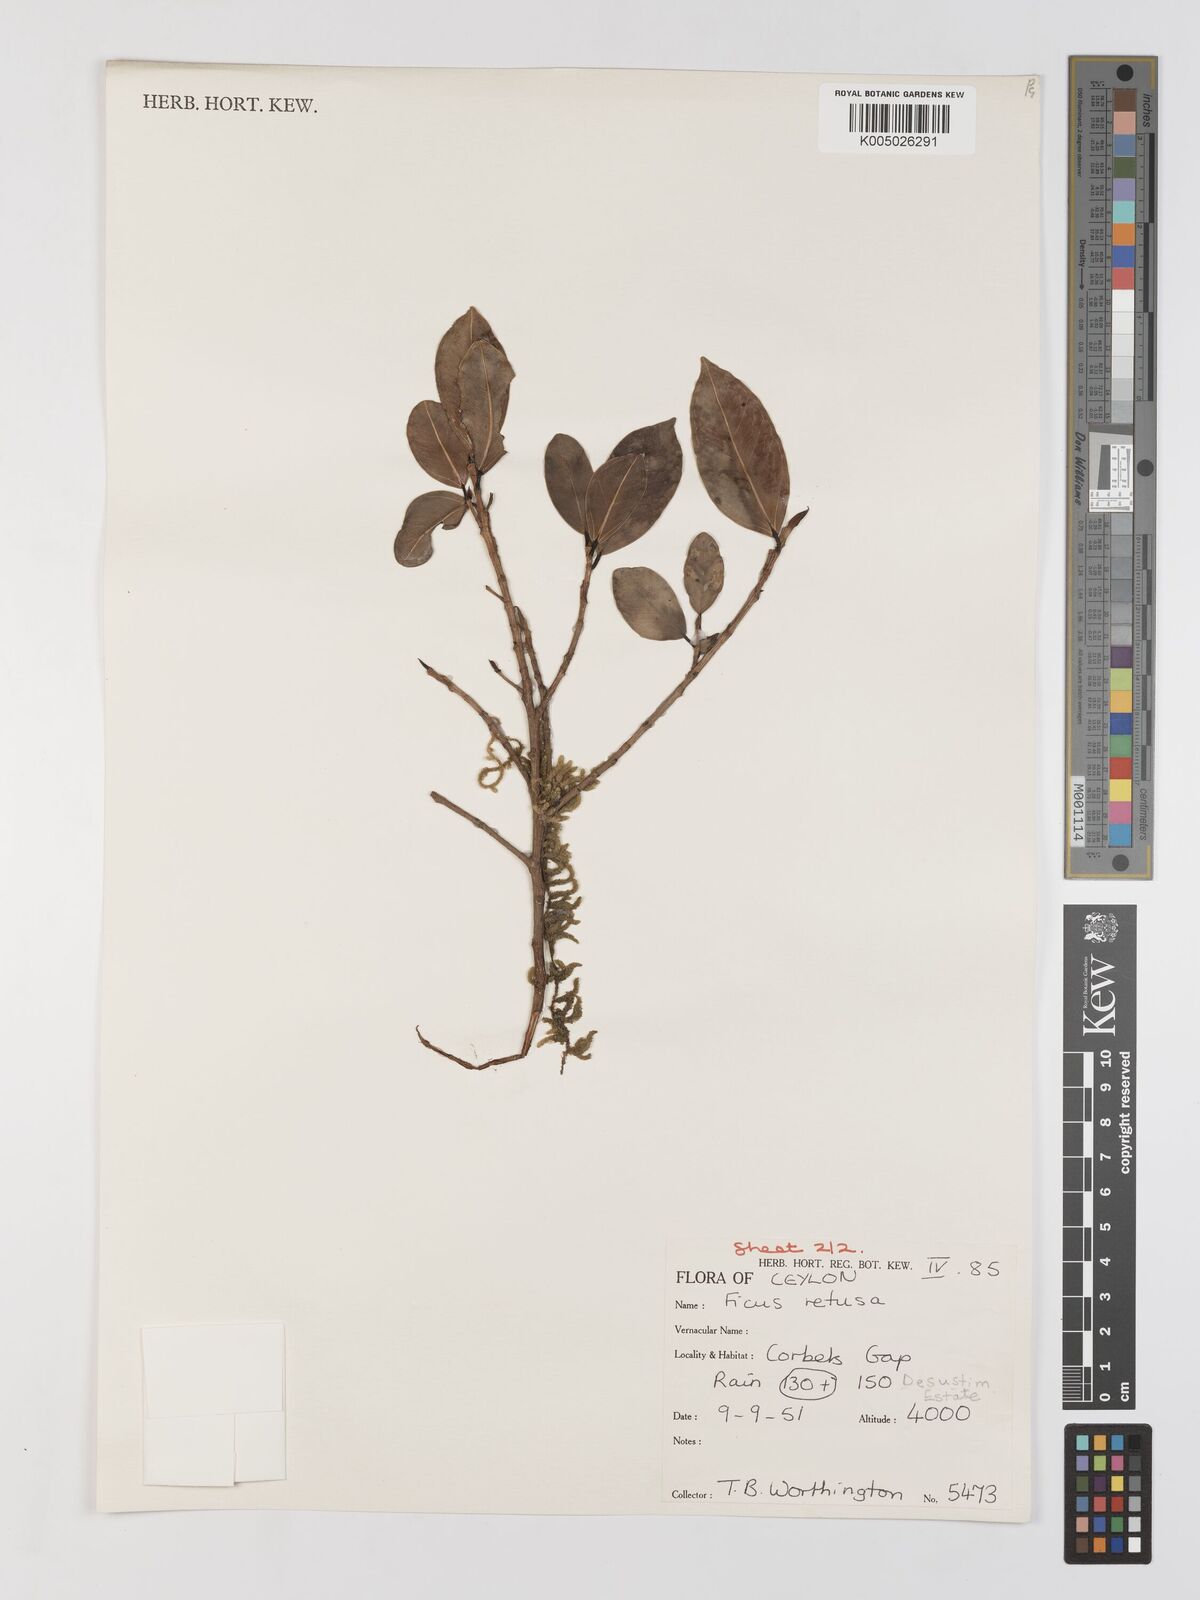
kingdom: Plantae
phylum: Tracheophyta
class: Magnoliopsida
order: Rosales
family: Moraceae
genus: Ficus
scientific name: Ficus
